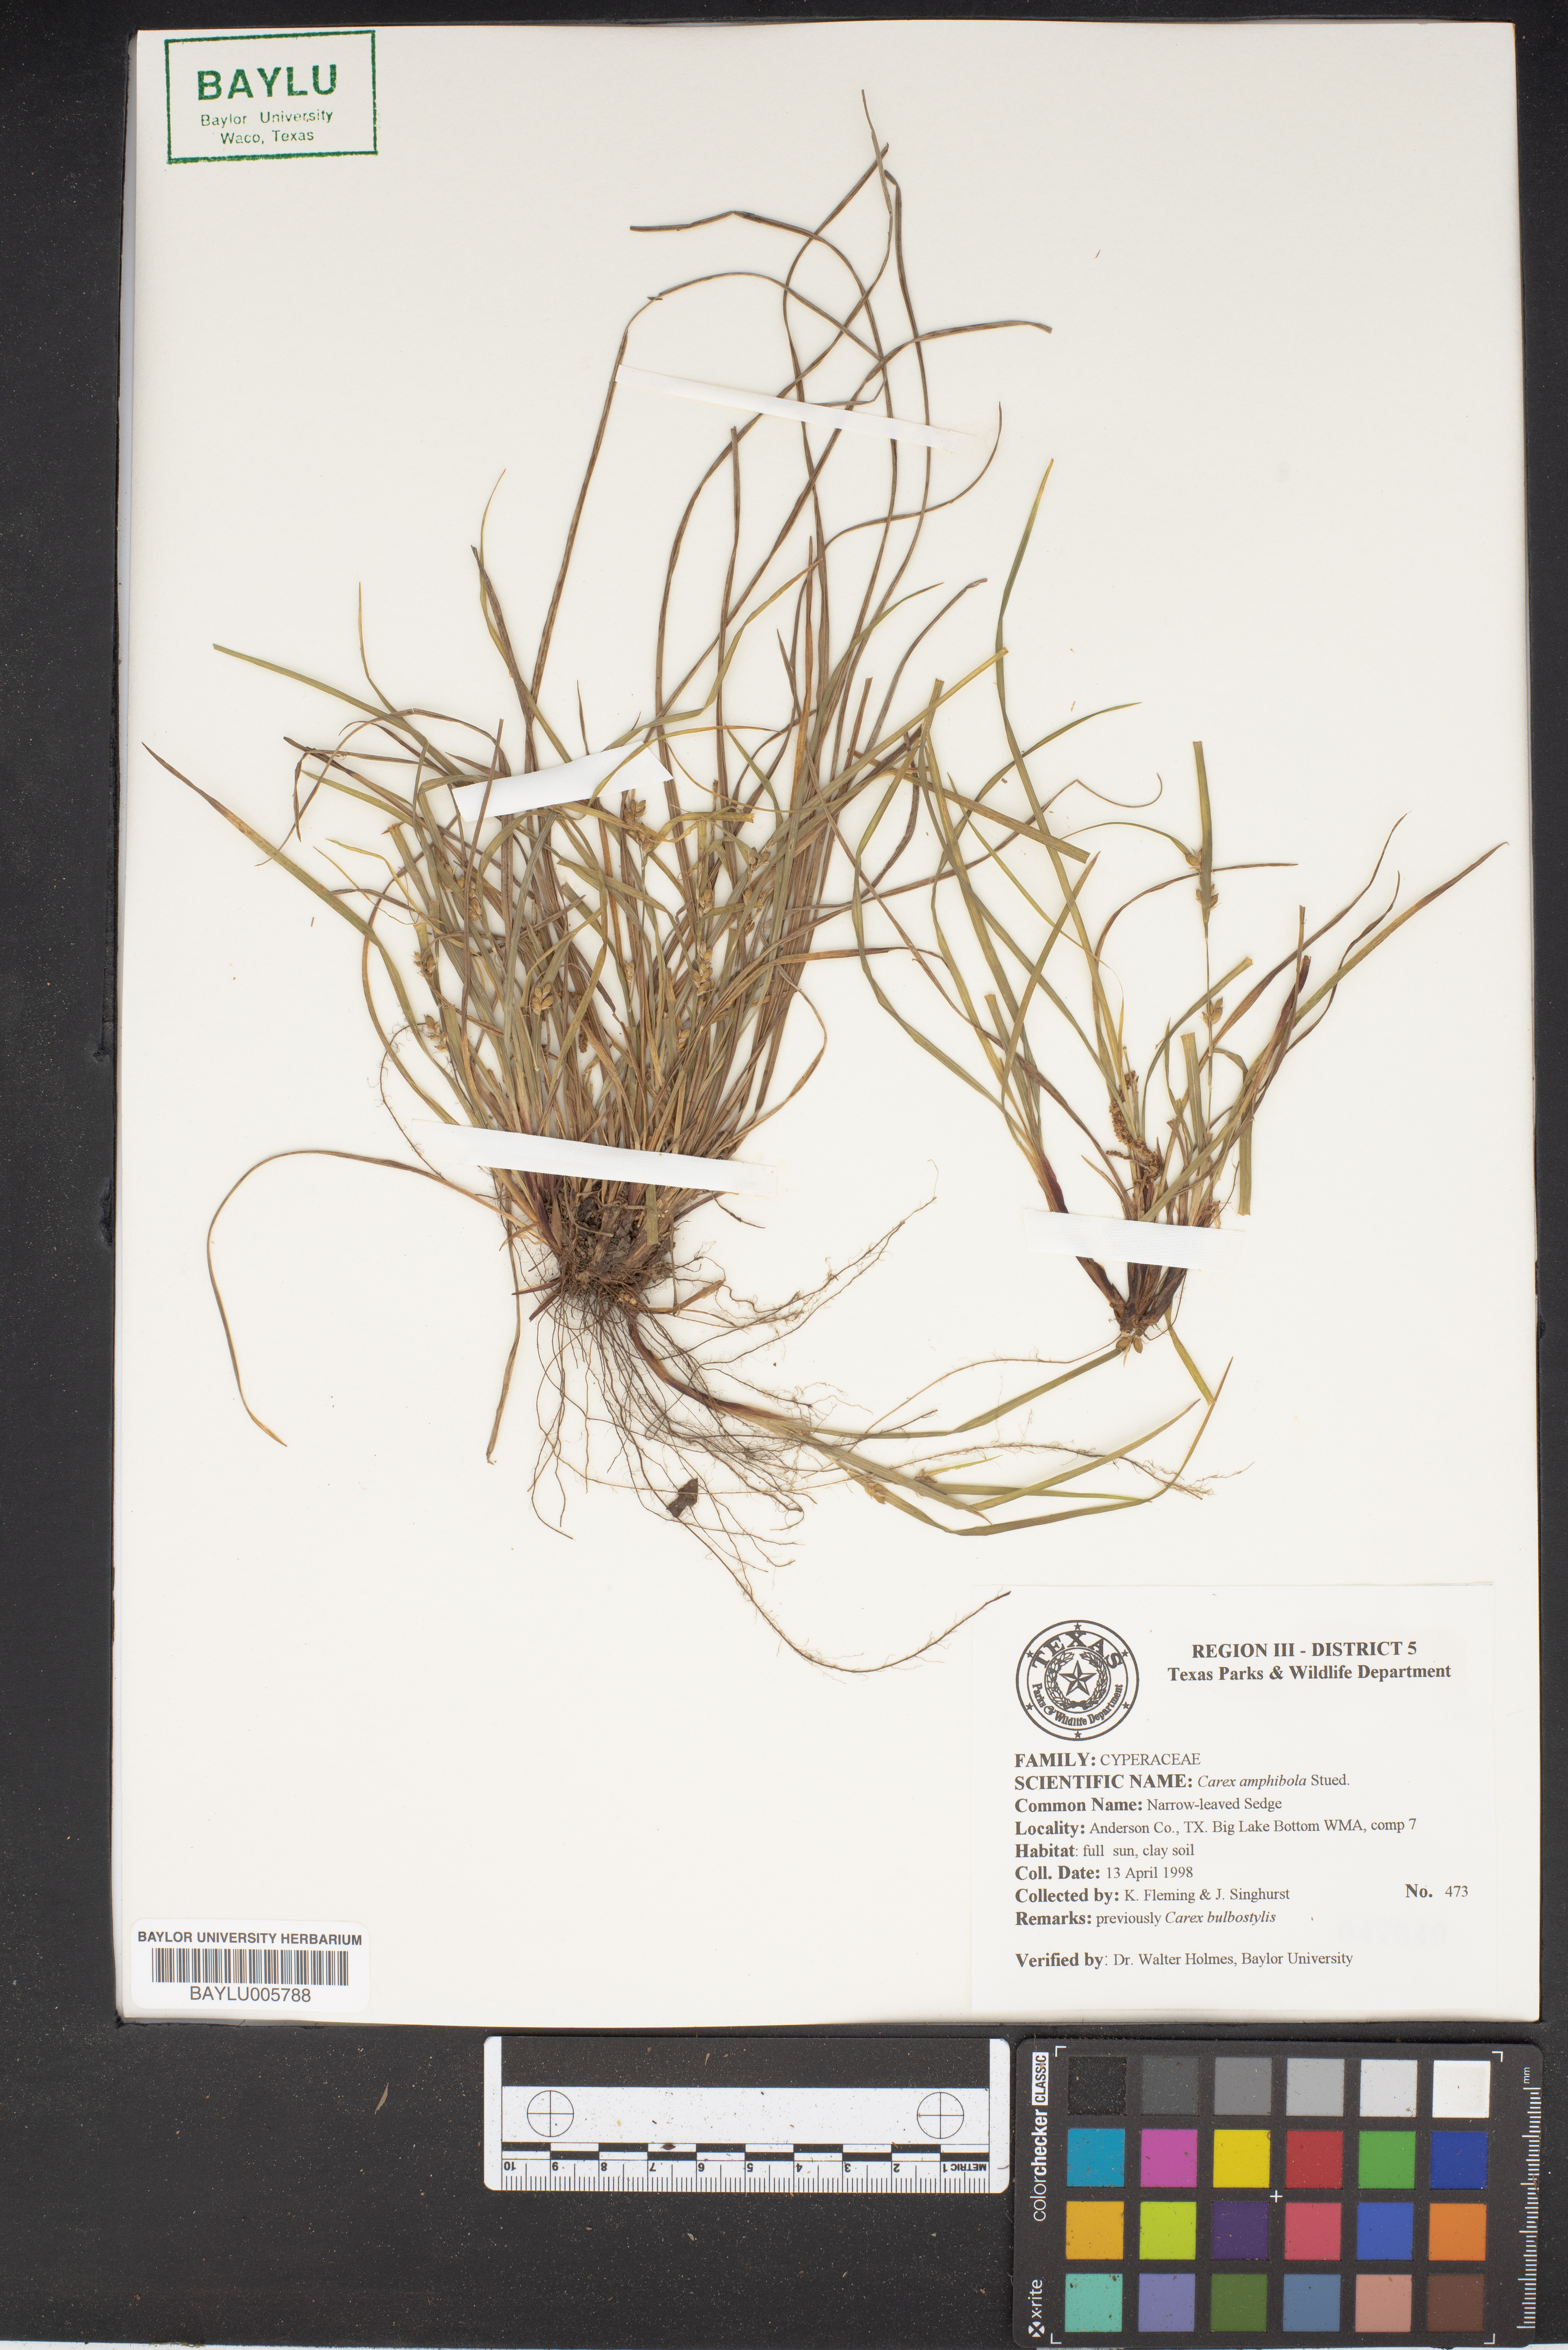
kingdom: Plantae
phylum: Tracheophyta
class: Liliopsida
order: Poales
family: Cyperaceae
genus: Carex
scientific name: Carex amphibola
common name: Amphibious sedge
